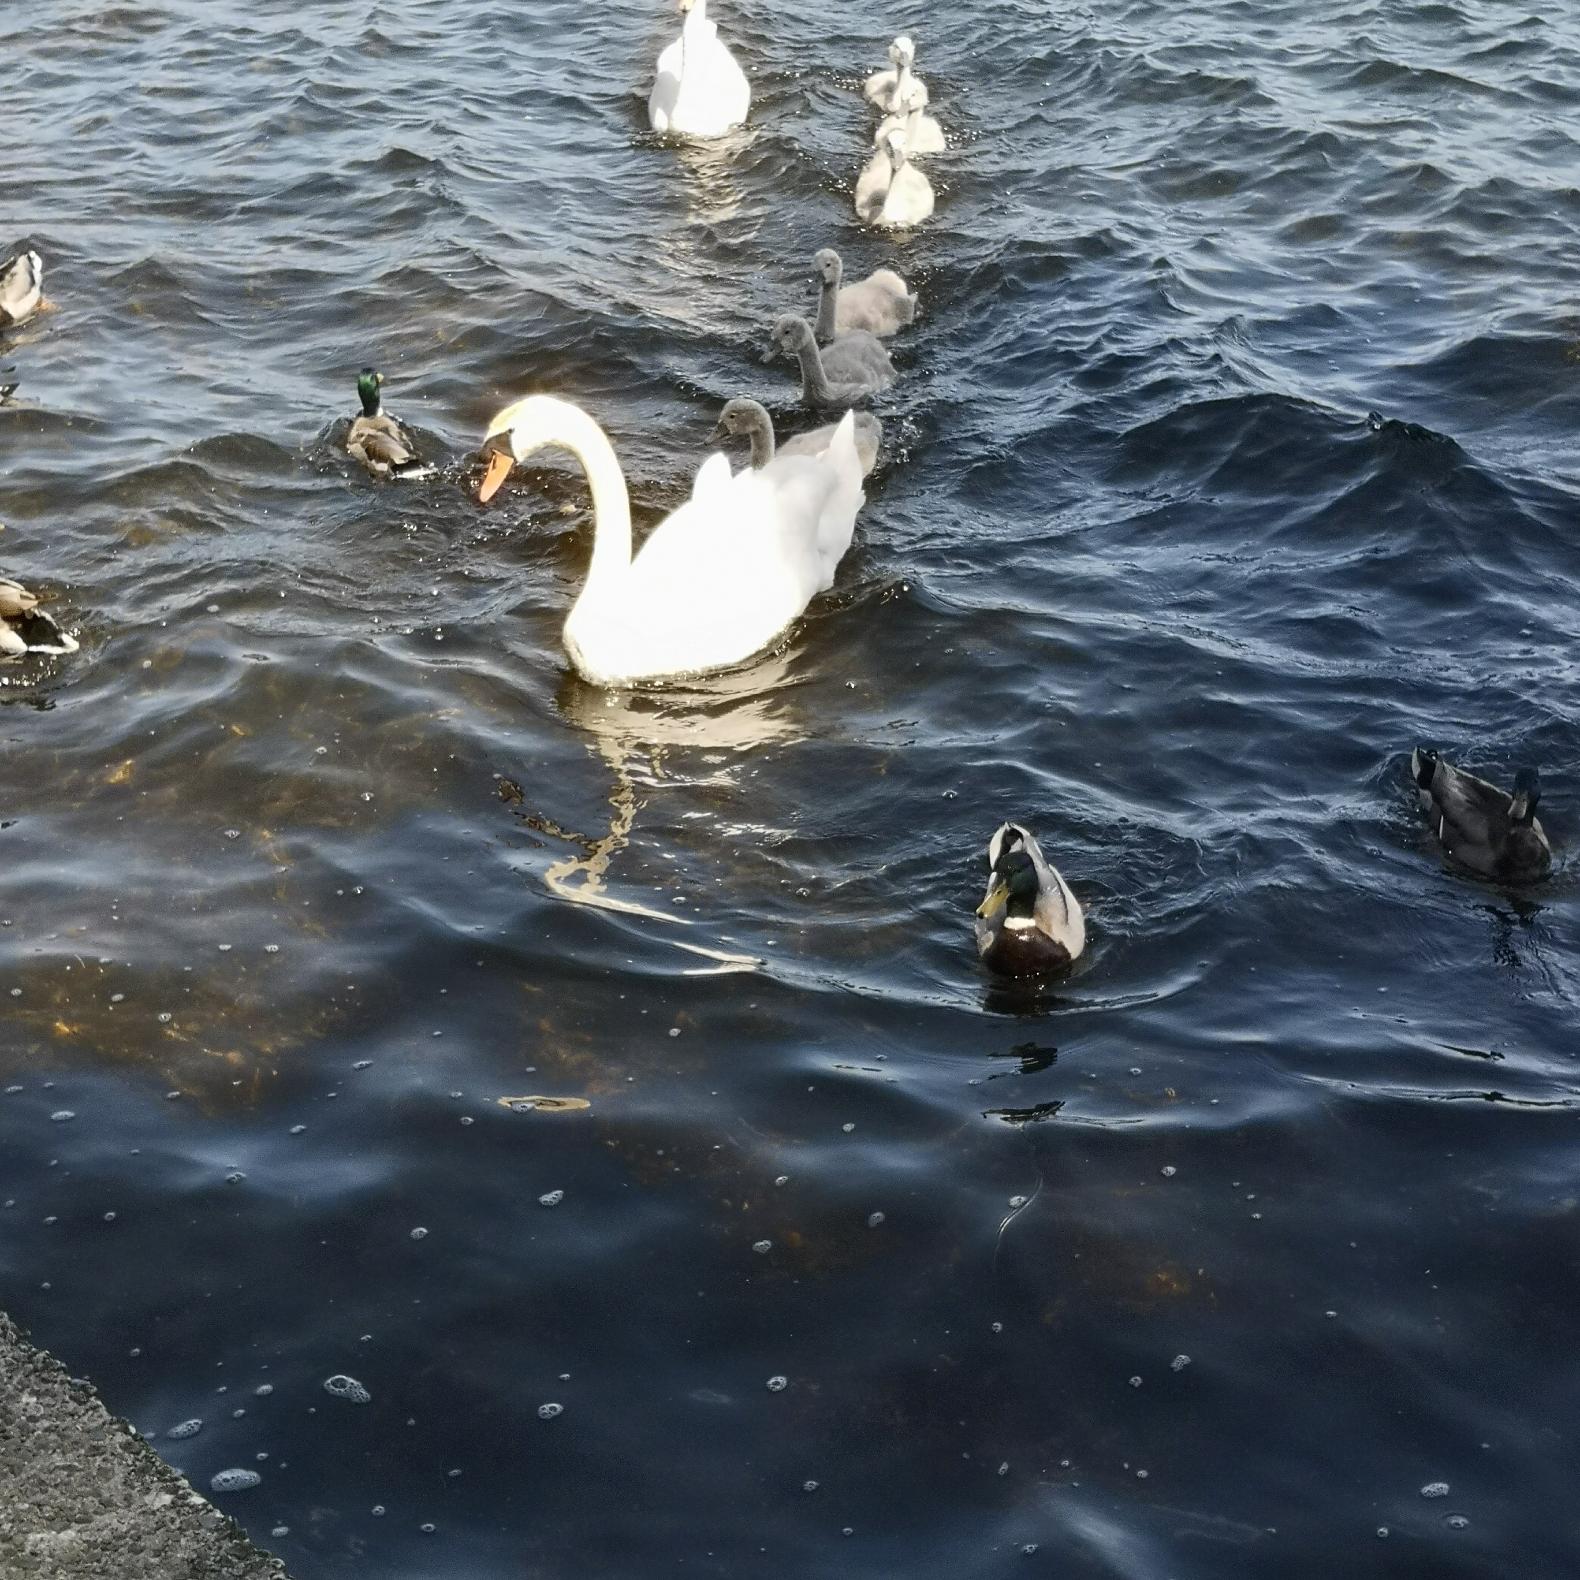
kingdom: Animalia
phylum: Chordata
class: Aves
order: Anseriformes
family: Anatidae
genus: Cygnus
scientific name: Cygnus olor
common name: Knopsvane
